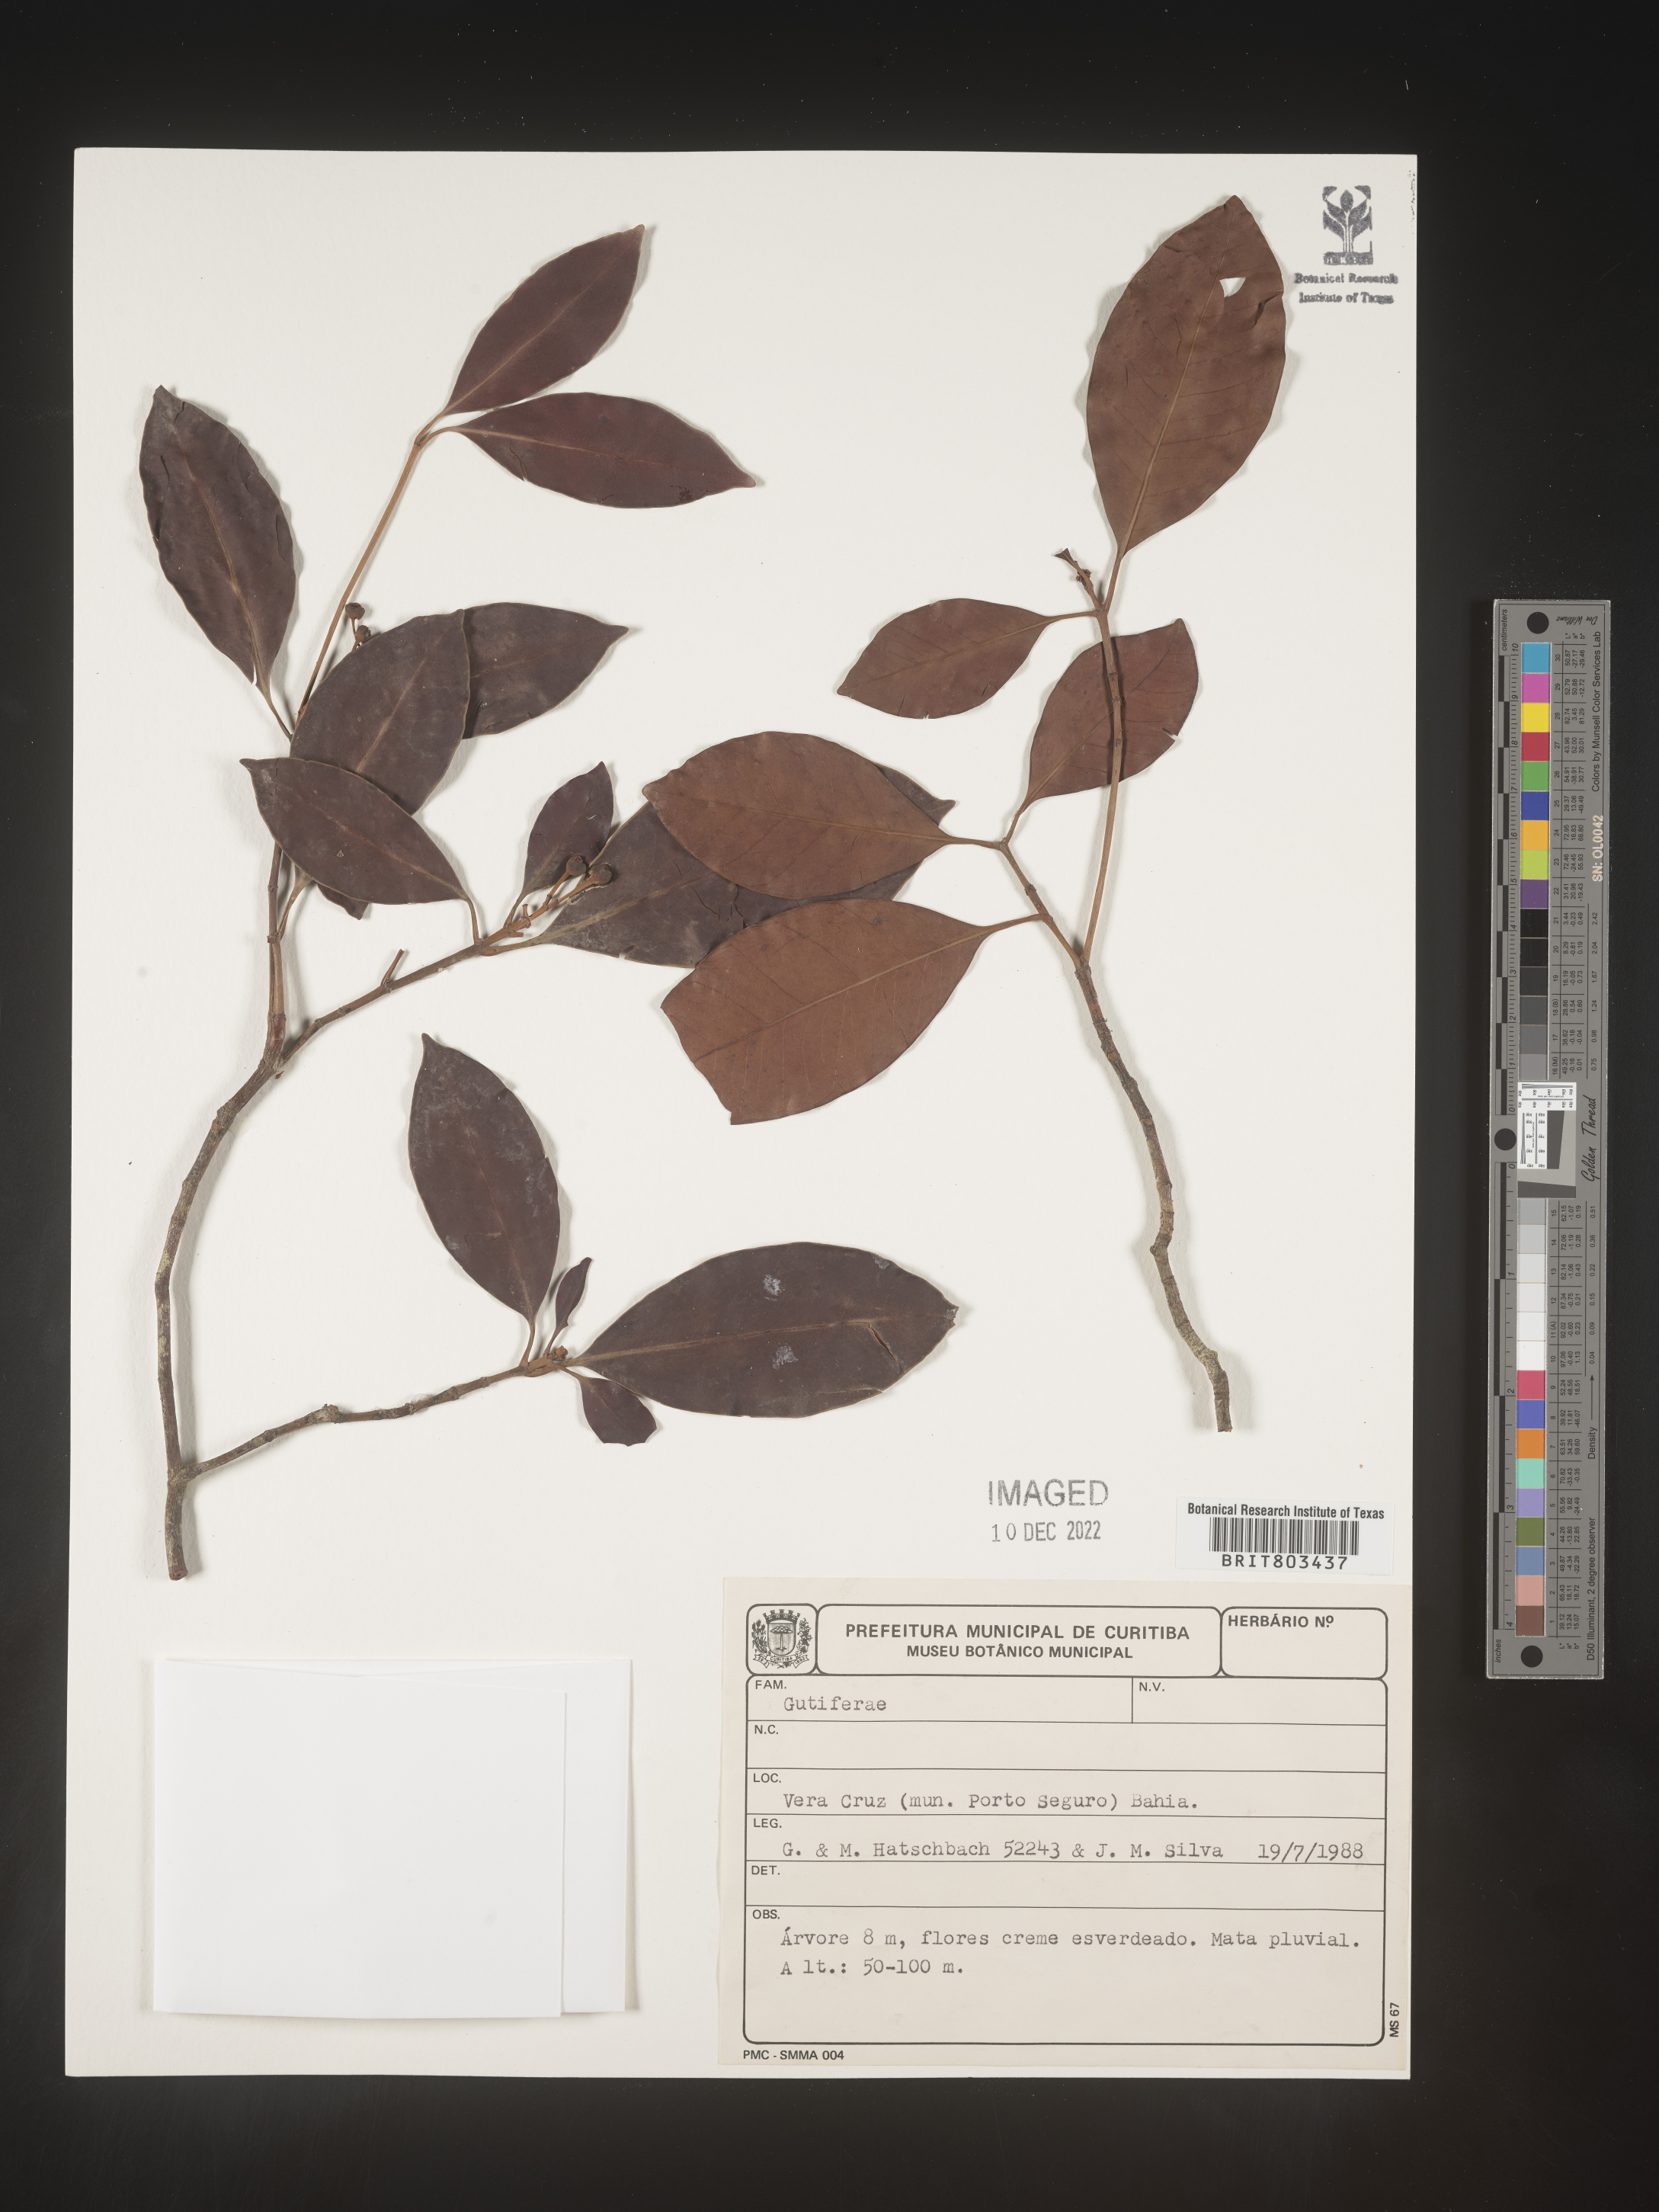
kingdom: Plantae
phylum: Tracheophyta
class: Magnoliopsida
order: Malpighiales
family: Clusiaceae
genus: Tovomita
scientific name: Tovomita
